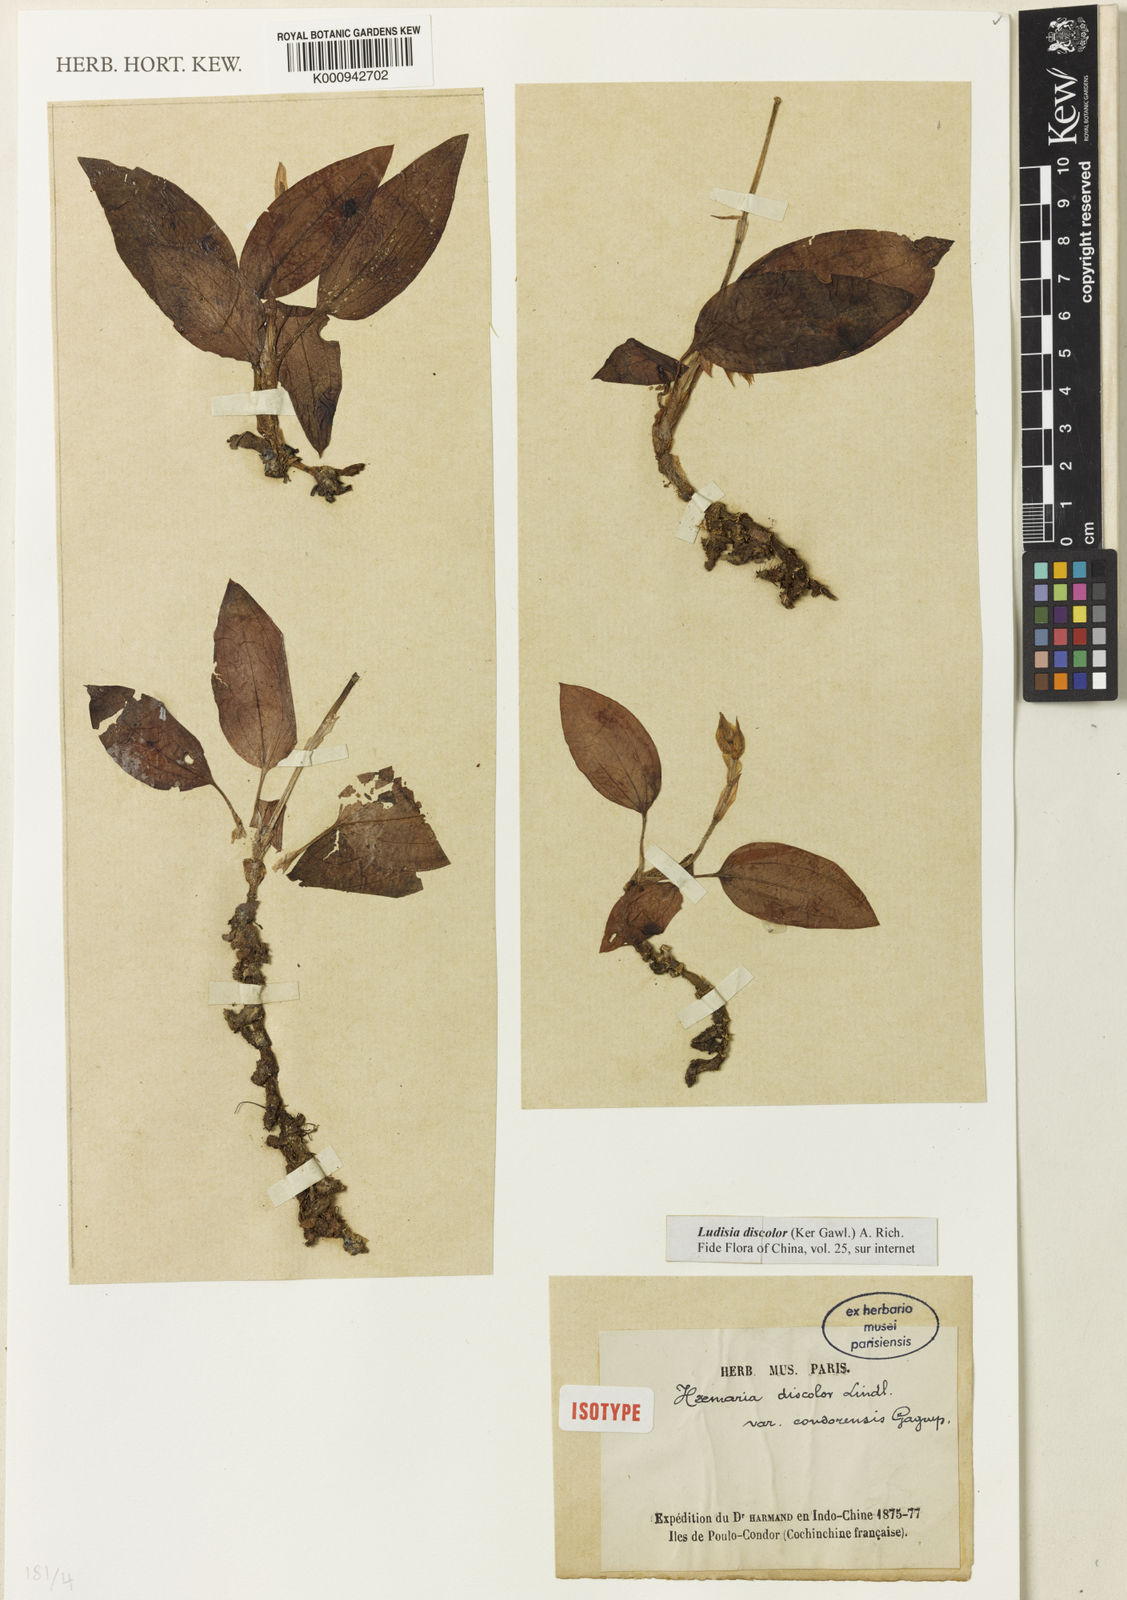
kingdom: Plantae
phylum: Tracheophyta
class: Liliopsida
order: Asparagales
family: Orchidaceae
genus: Ludisia
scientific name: Ludisia
